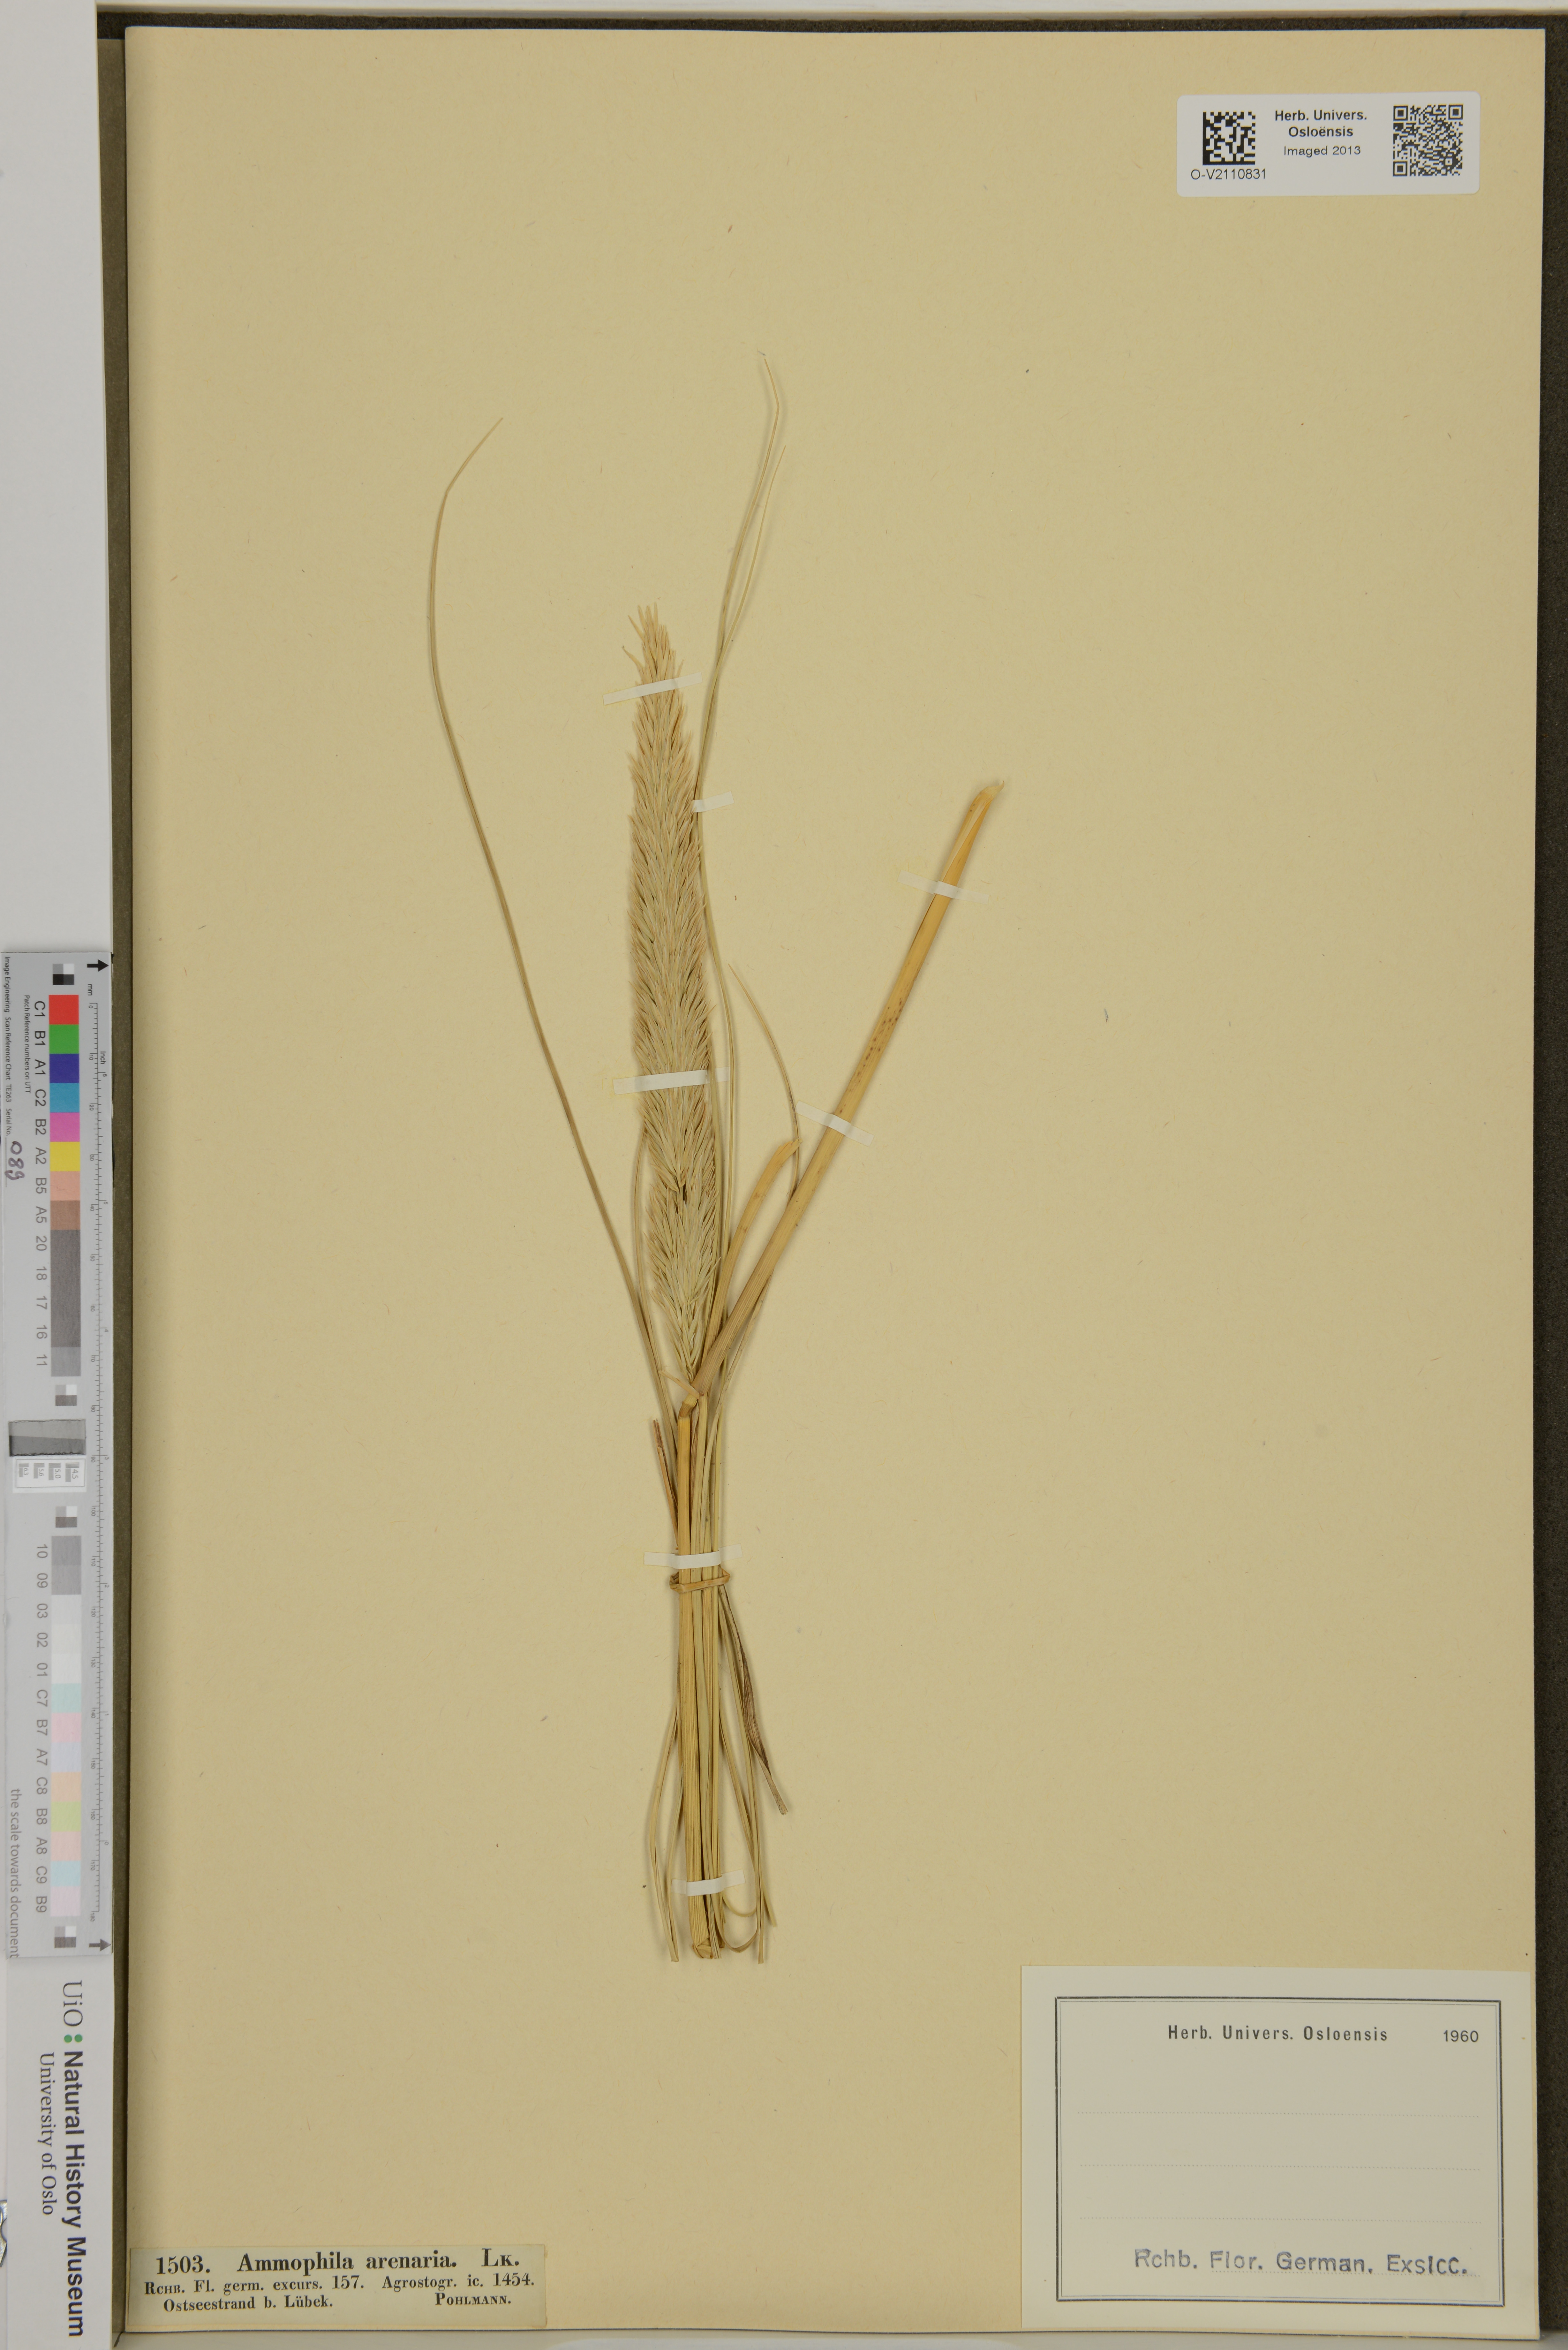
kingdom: Plantae
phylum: Tracheophyta
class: Liliopsida
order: Poales
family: Poaceae
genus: Calamagrostis
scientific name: Calamagrostis arenaria
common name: European beachgrass
